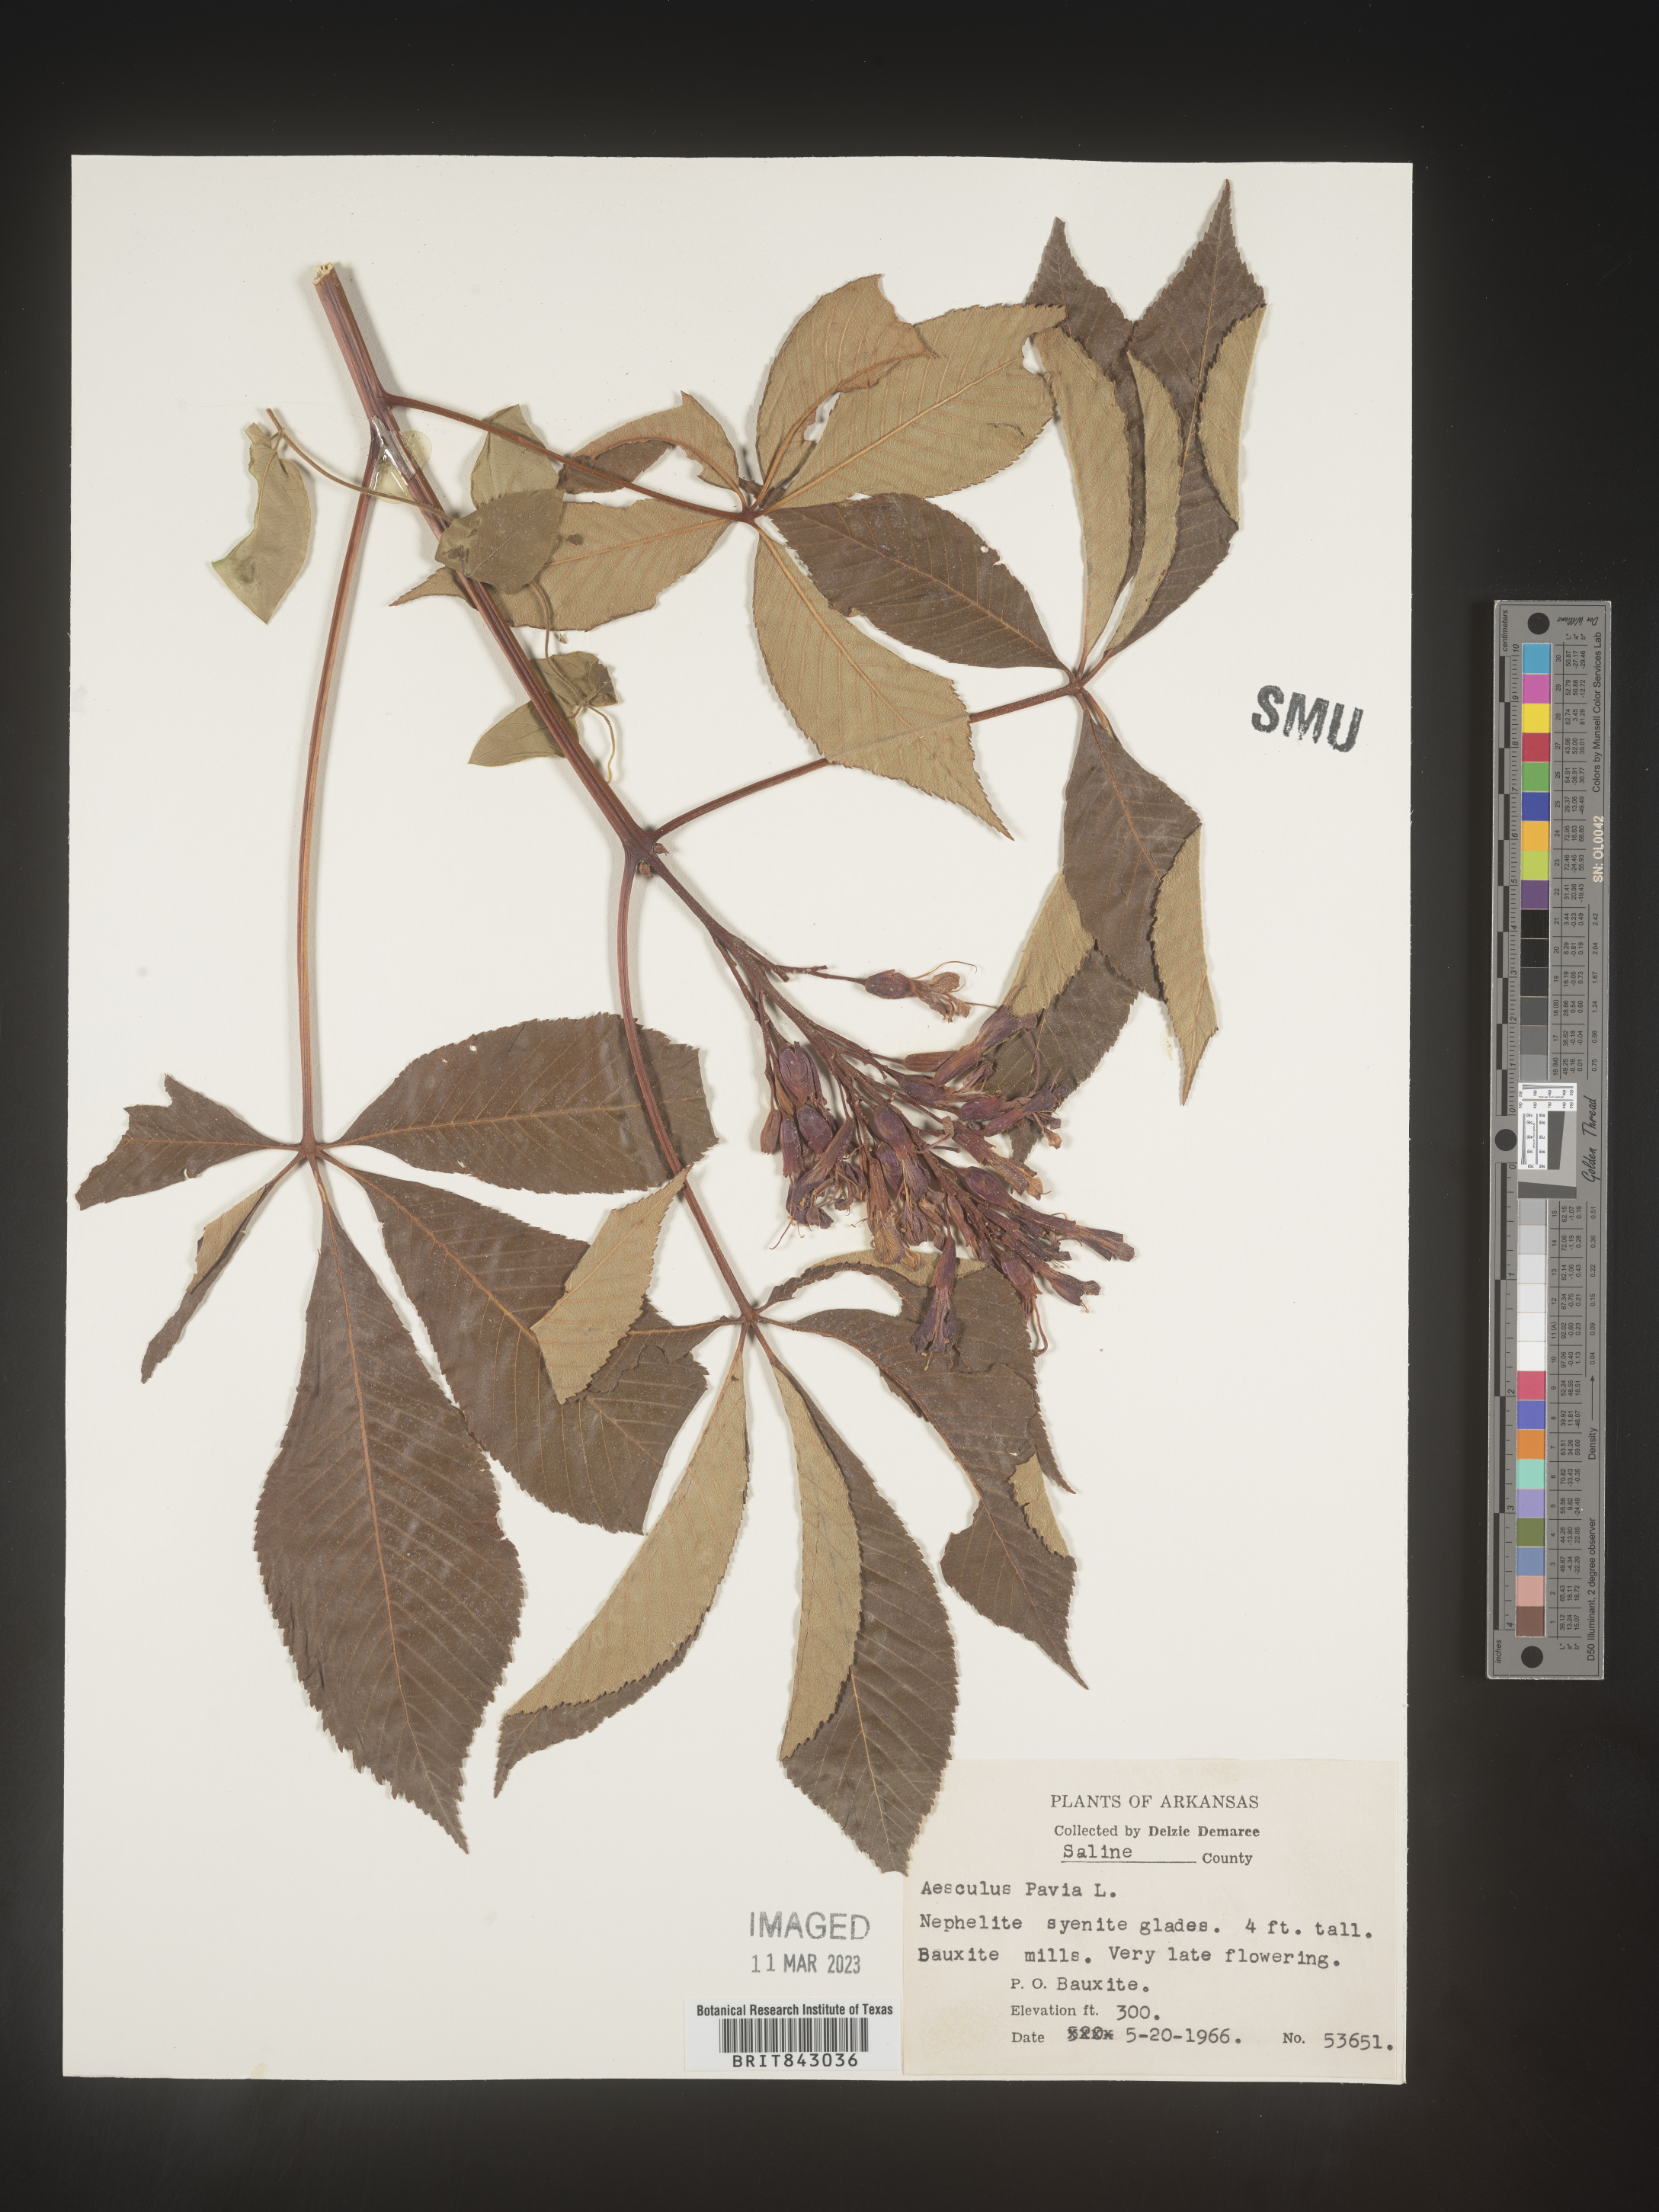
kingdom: Plantae
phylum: Tracheophyta
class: Magnoliopsida
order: Sapindales
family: Sapindaceae
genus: Aesculus
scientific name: Aesculus pavia
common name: Red buckeye
